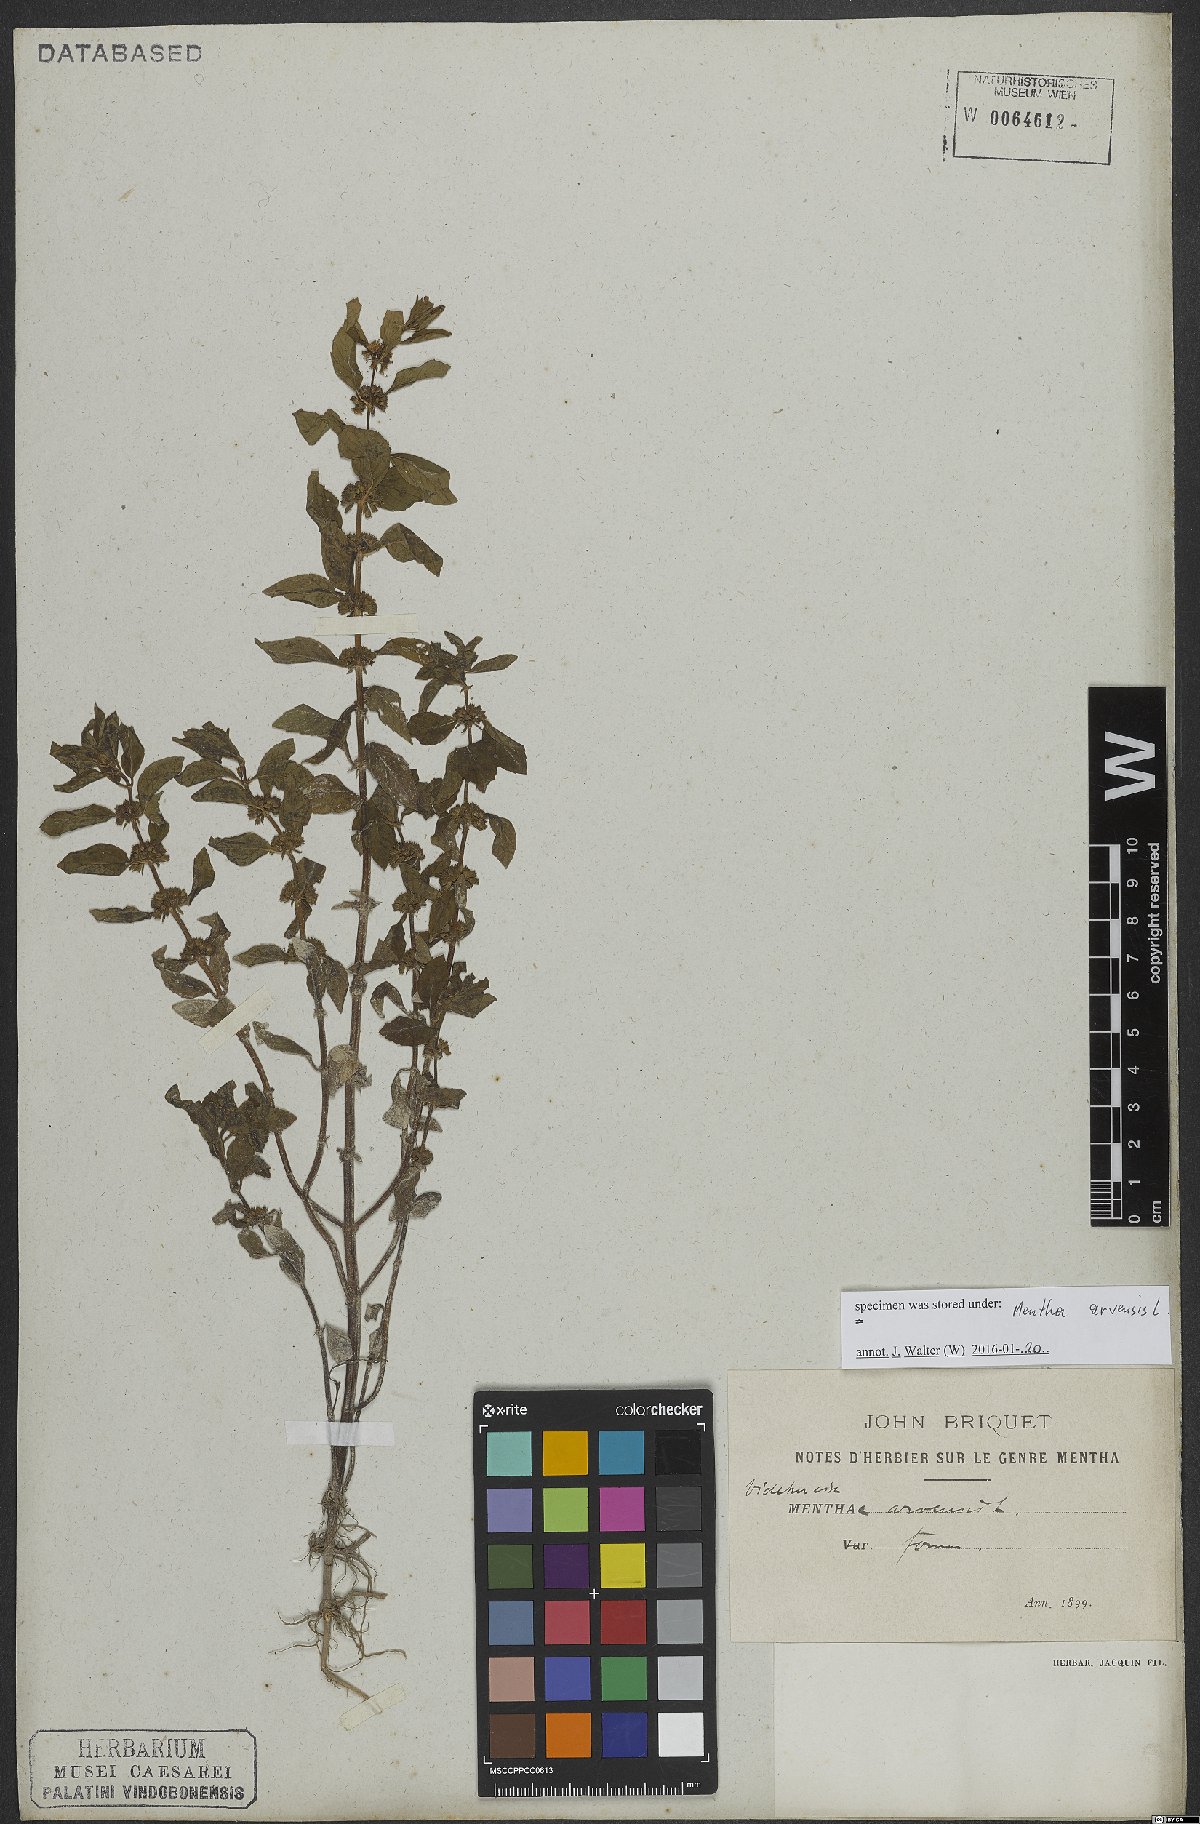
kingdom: Plantae
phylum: Tracheophyta
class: Magnoliopsida
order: Lamiales
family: Lamiaceae
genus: Mentha
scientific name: Mentha arvensis
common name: Corn mint
